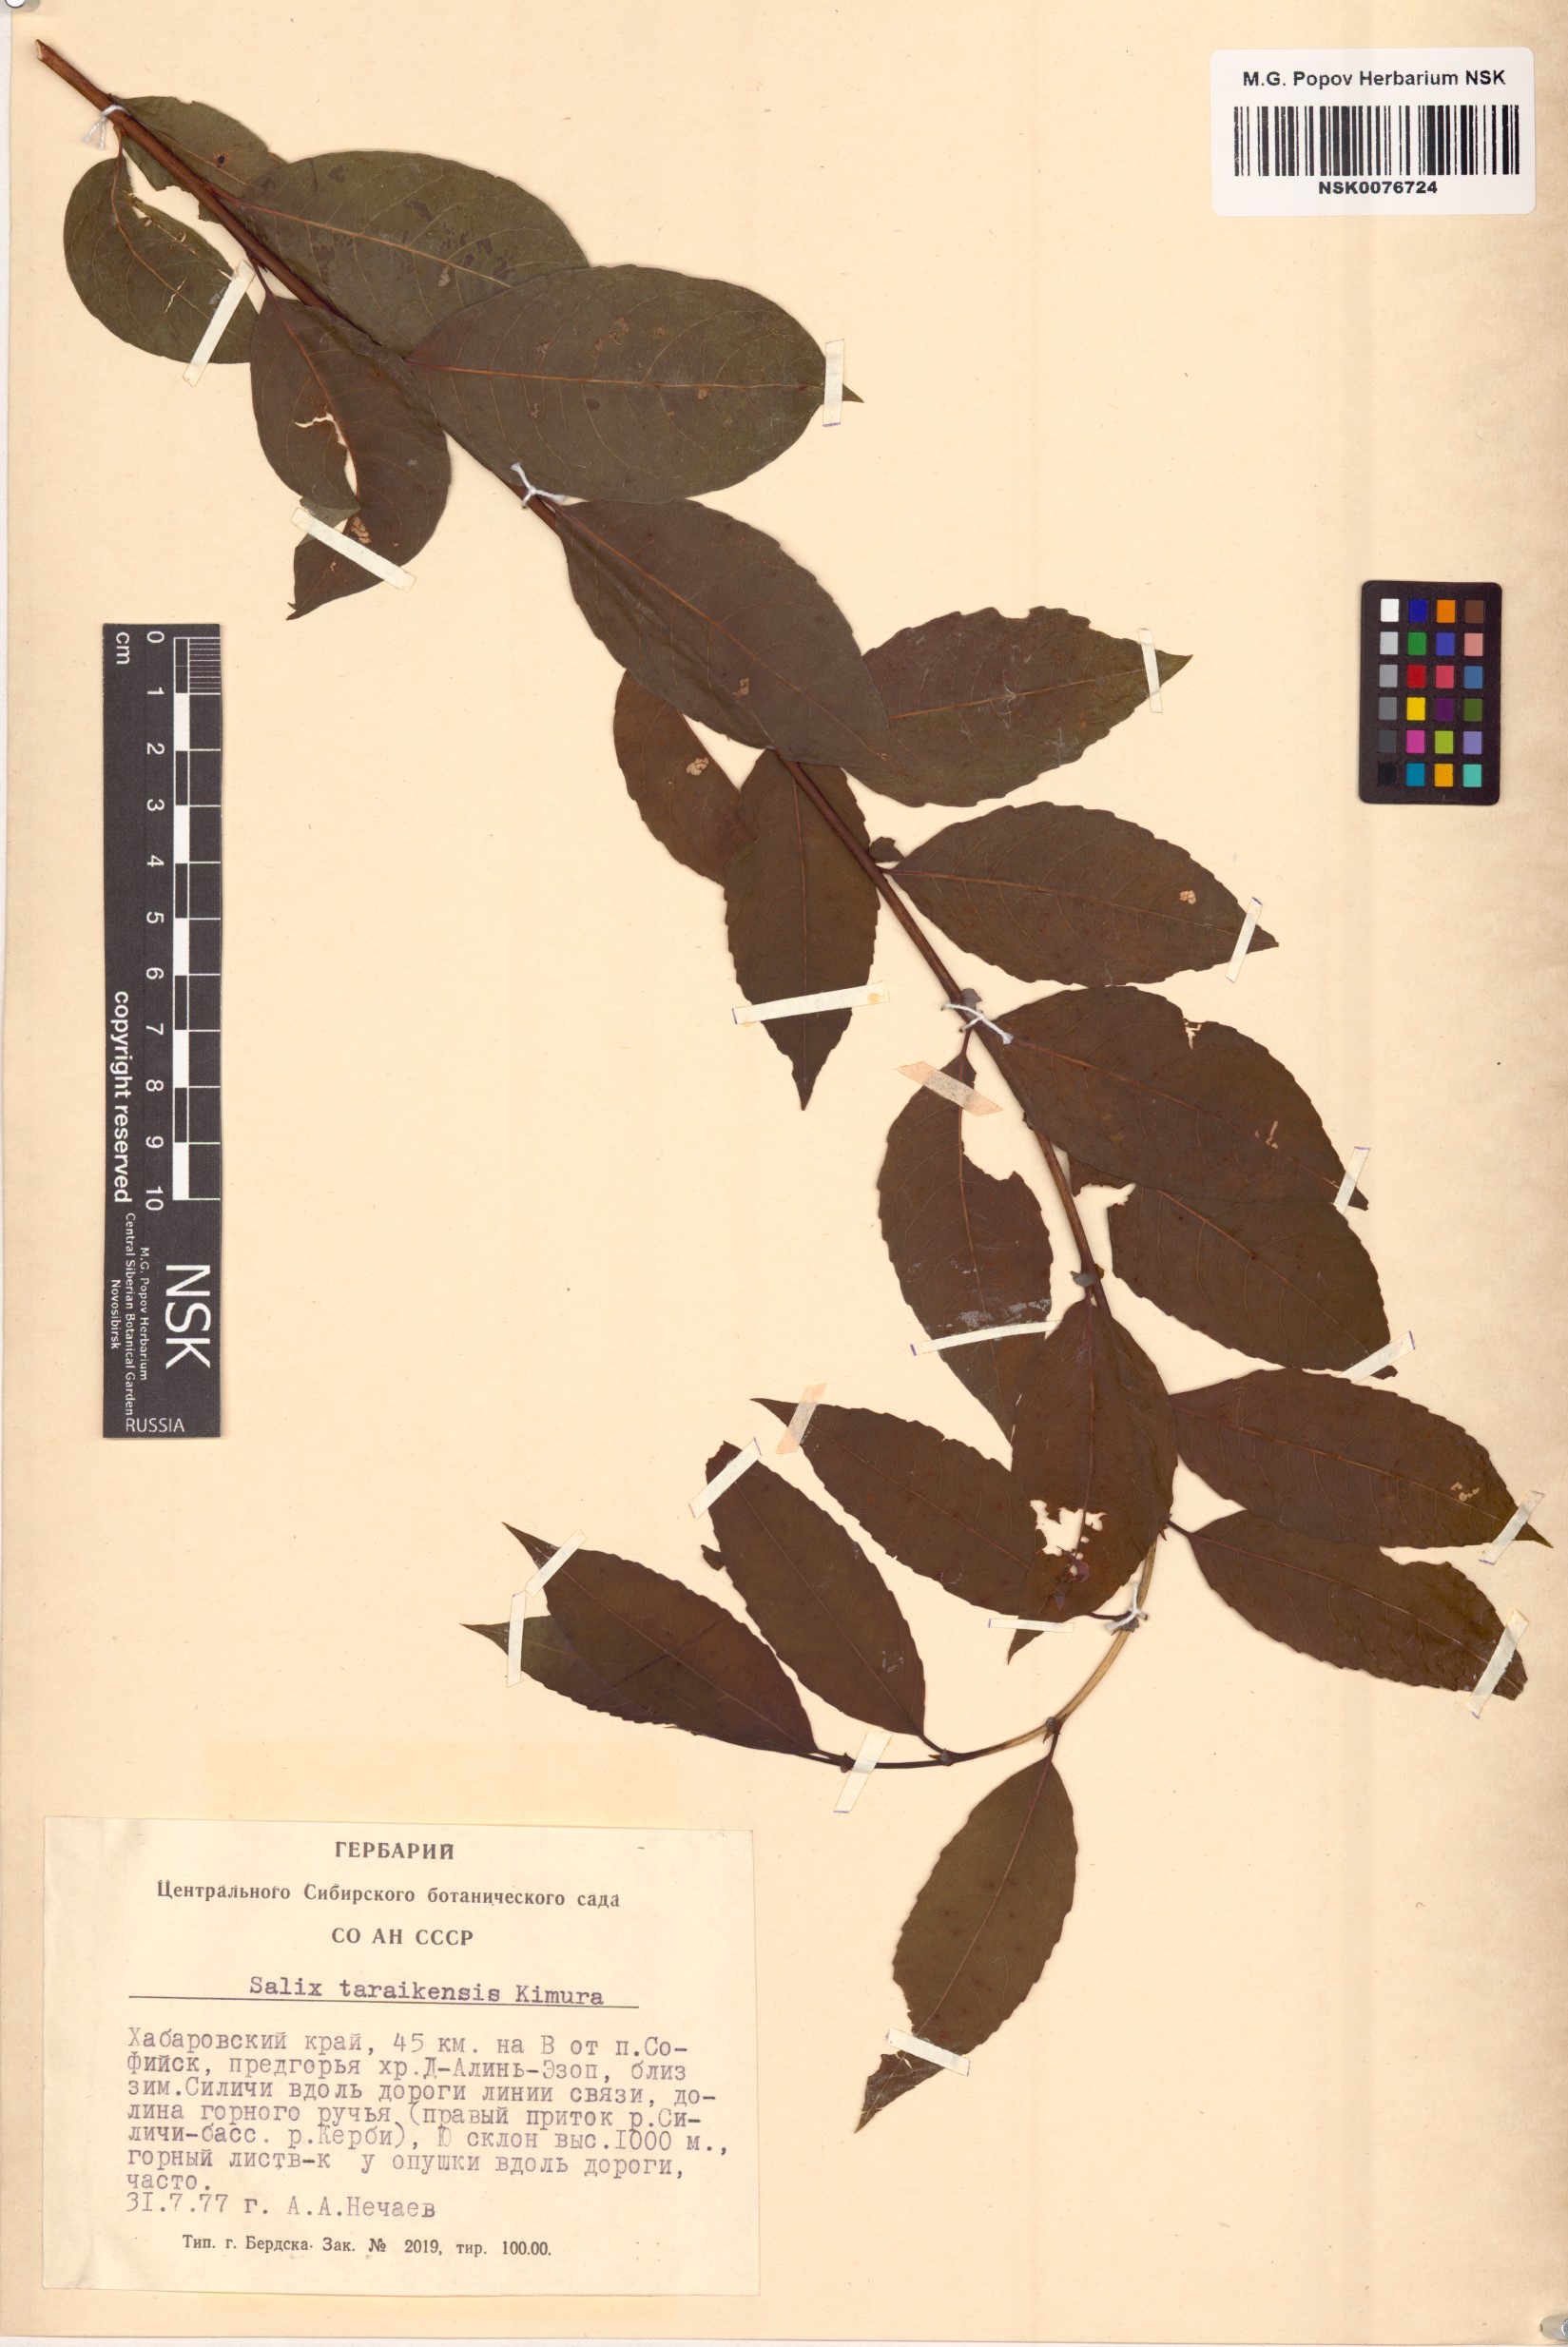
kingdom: Plantae
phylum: Tracheophyta
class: Magnoliopsida
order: Malpighiales
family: Salicaceae
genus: Salix
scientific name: Salix taraikensis
